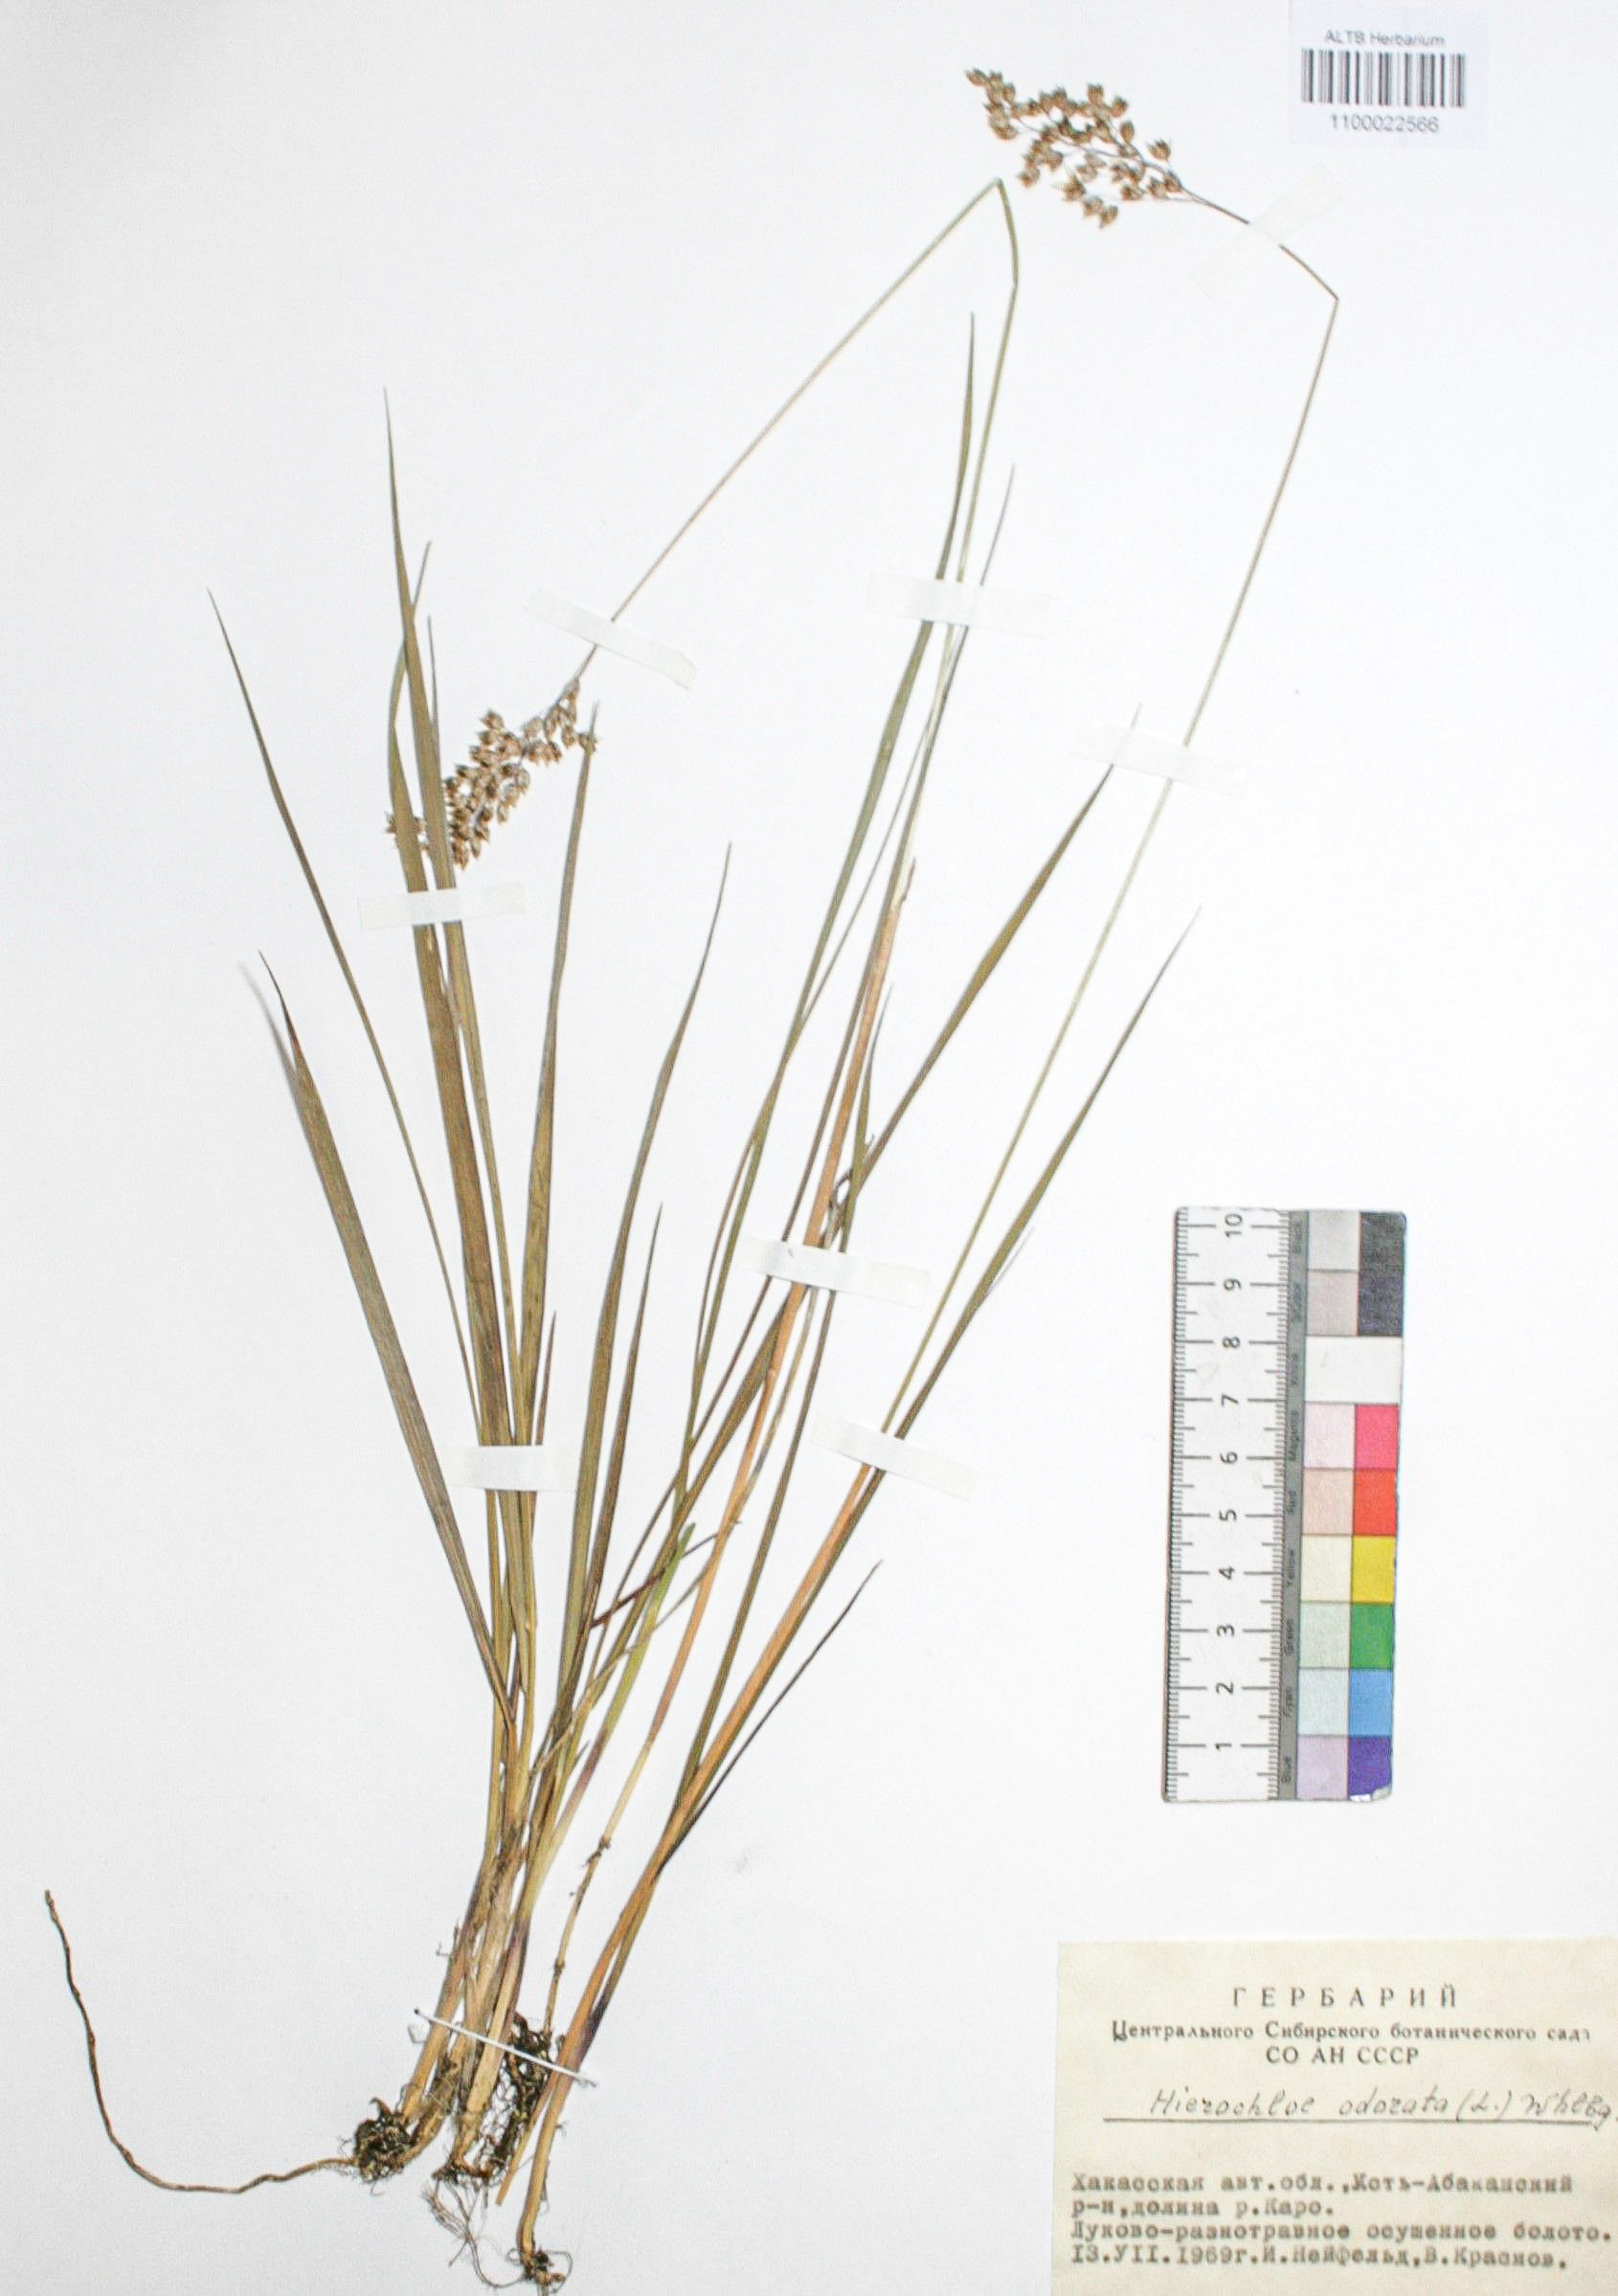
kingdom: Plantae
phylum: Tracheophyta
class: Liliopsida
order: Poales
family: Poaceae
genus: Anthoxanthum
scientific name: Anthoxanthum nitens
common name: Holy grass
